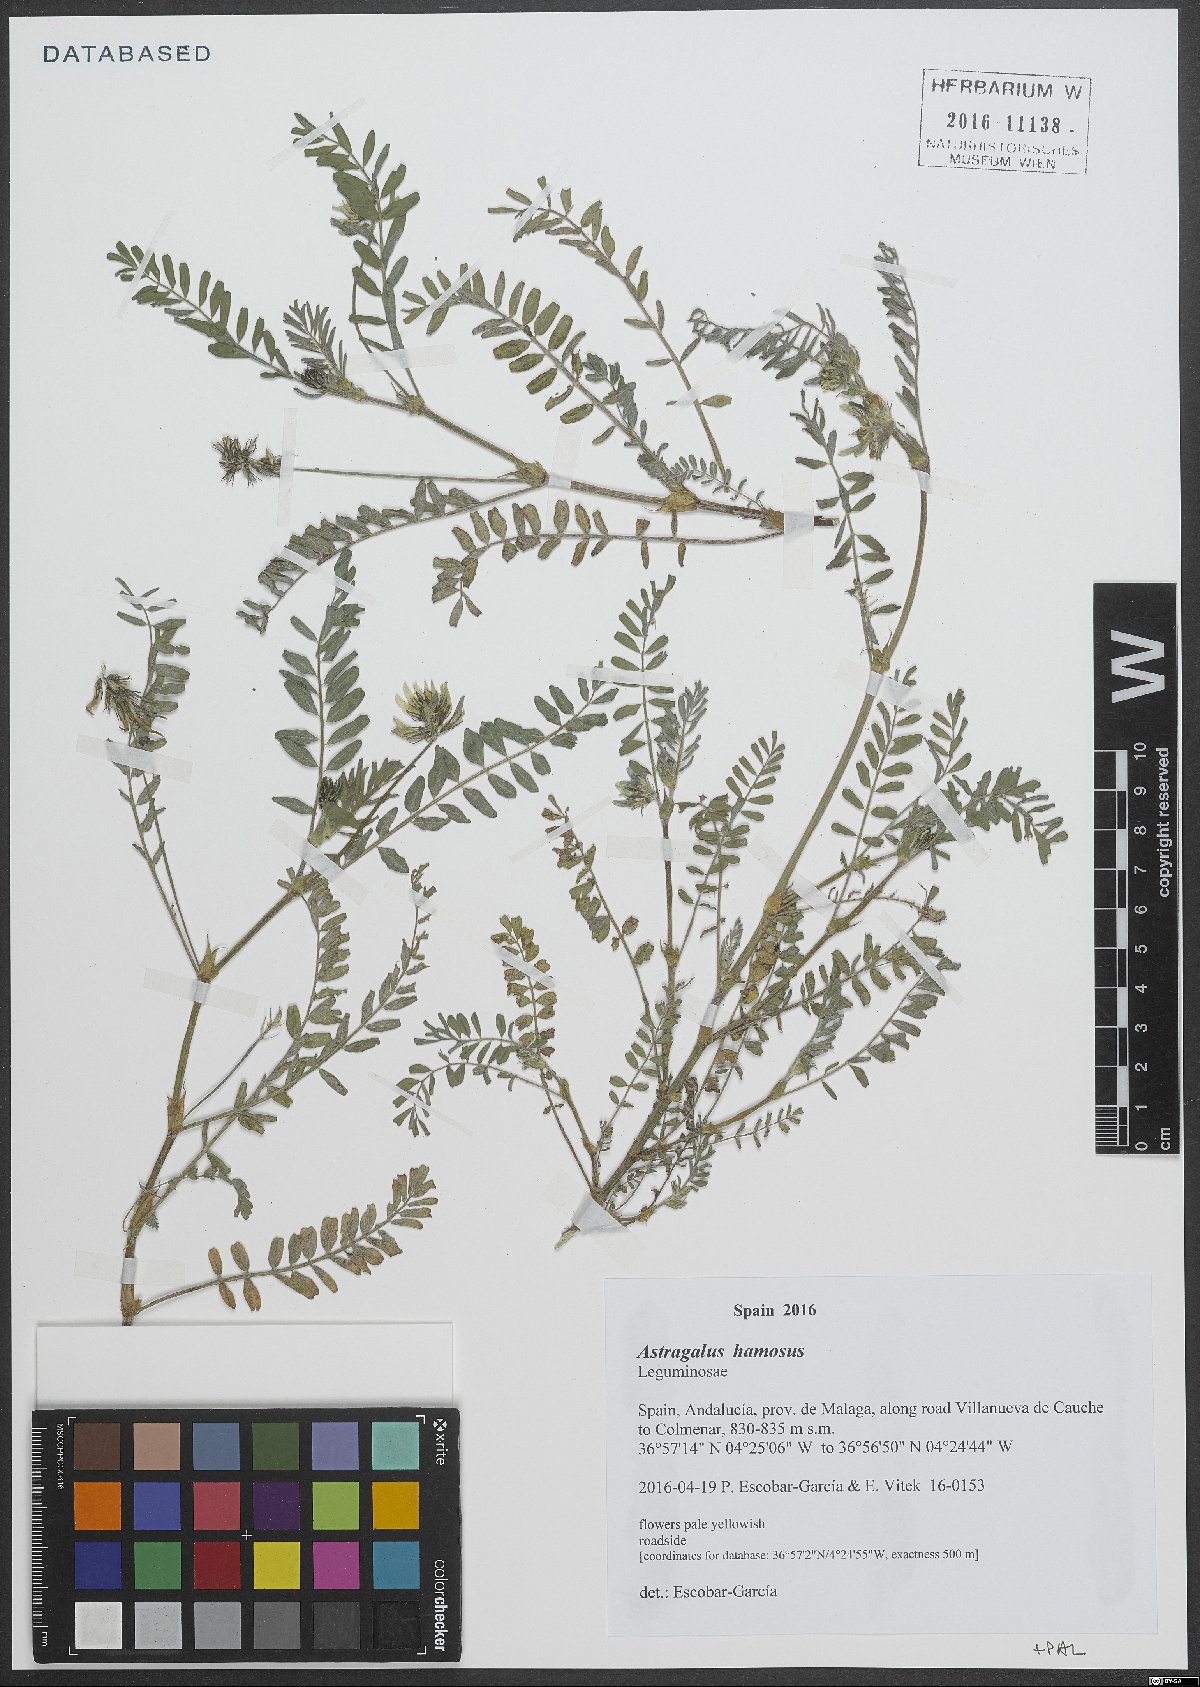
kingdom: Plantae
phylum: Tracheophyta
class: Magnoliopsida
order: Fabales
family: Fabaceae
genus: Astragalus
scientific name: Astragalus hamosus
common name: European milkvetch
